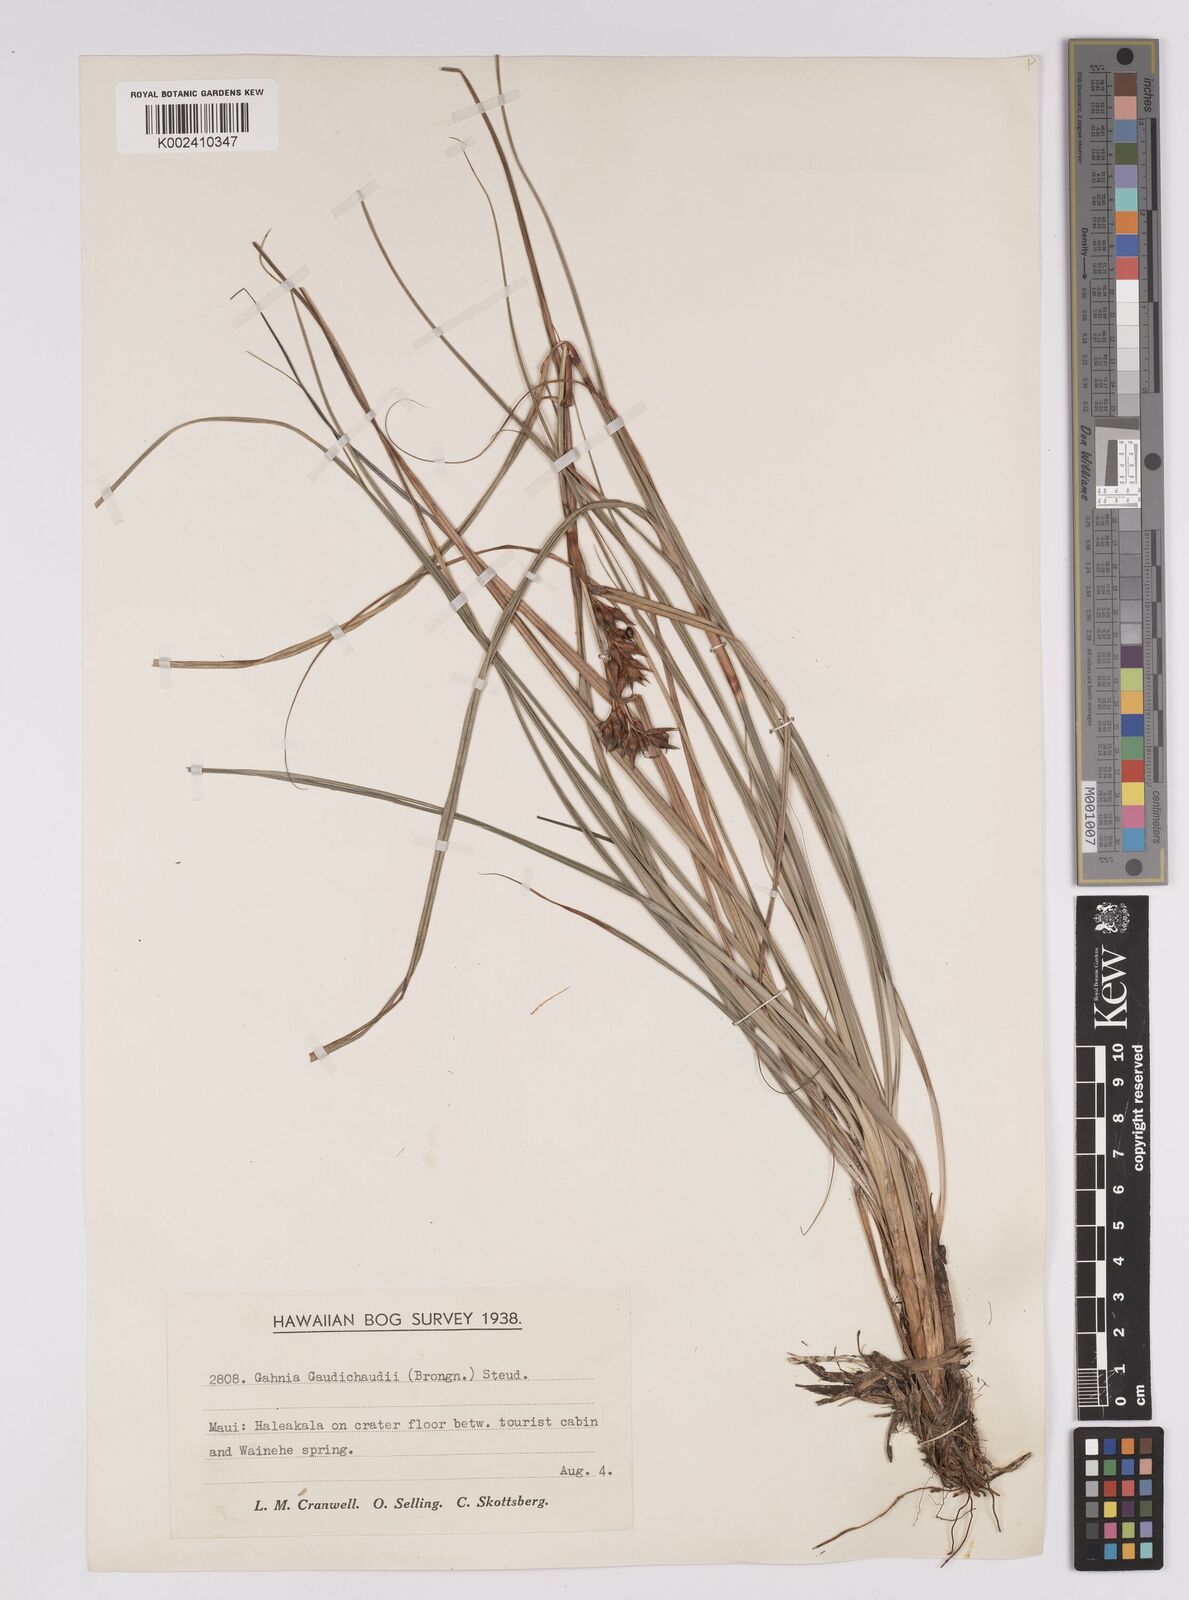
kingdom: Plantae
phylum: Tracheophyta
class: Liliopsida
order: Poales
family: Cyperaceae
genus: Morelotia
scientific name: Morelotia gahniiformis
